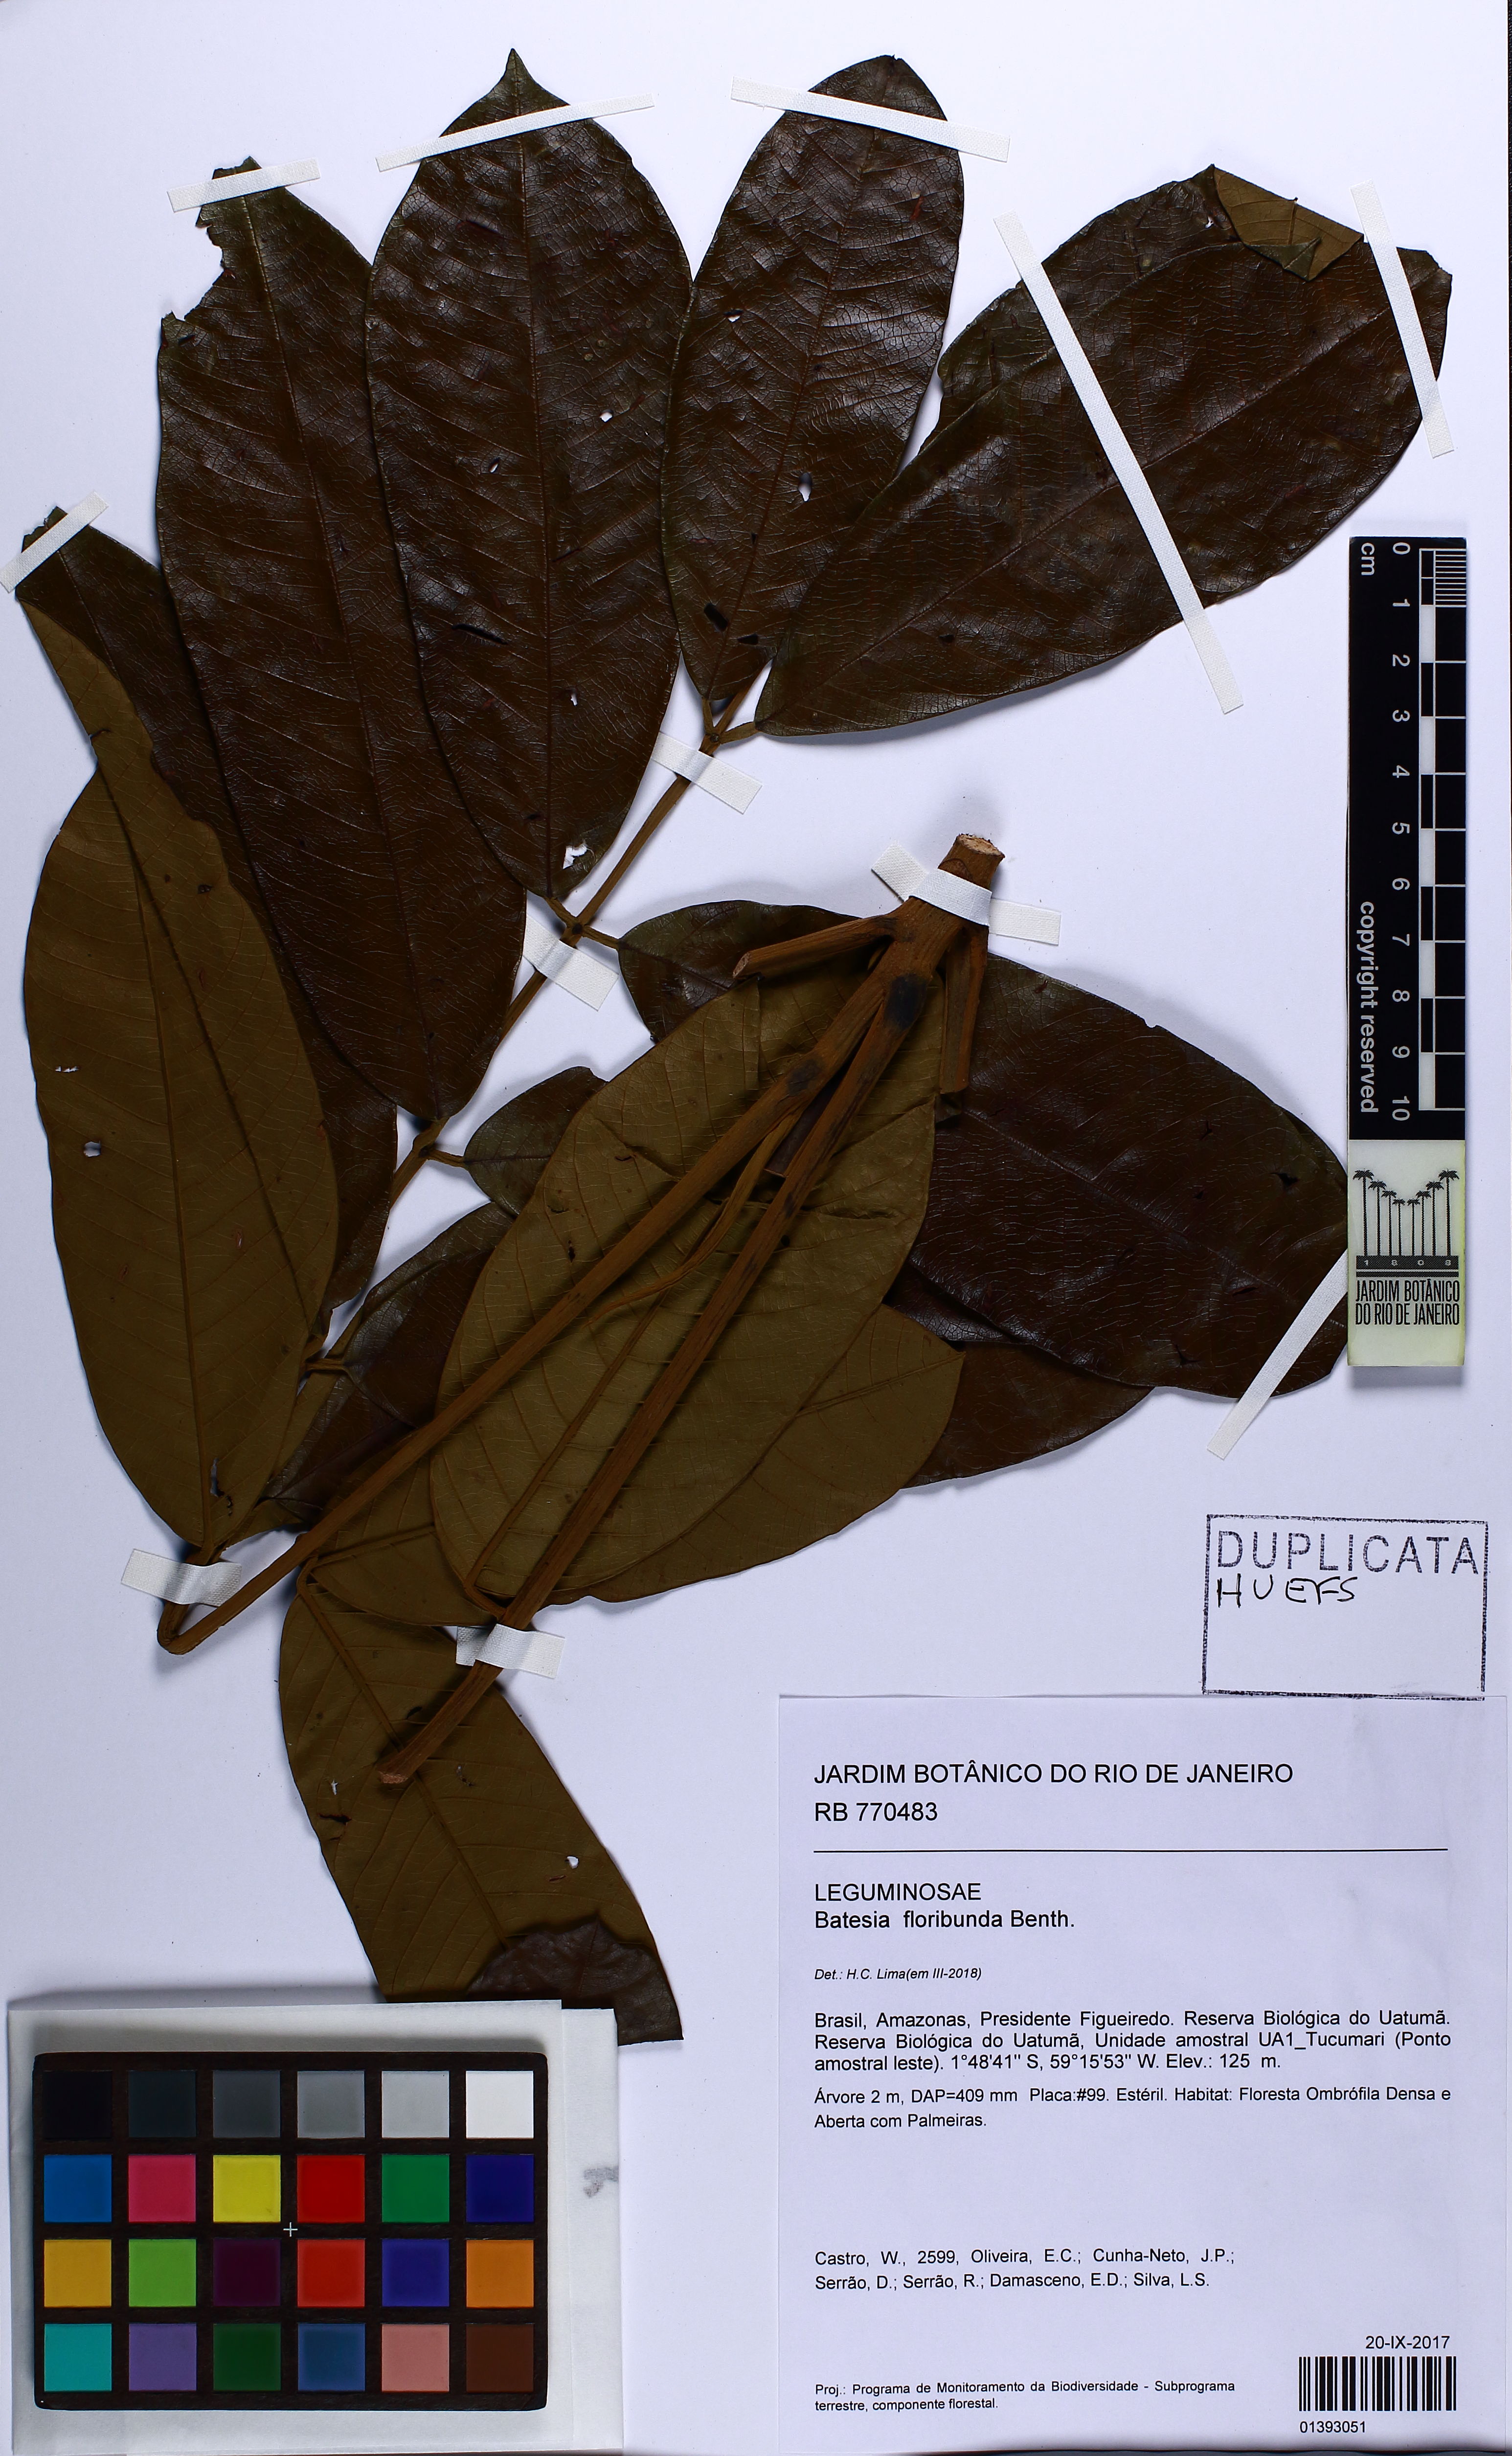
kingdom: Plantae
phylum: Tracheophyta
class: Magnoliopsida
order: Fabales
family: Fabaceae
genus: Batesia
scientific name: Batesia floribunda
